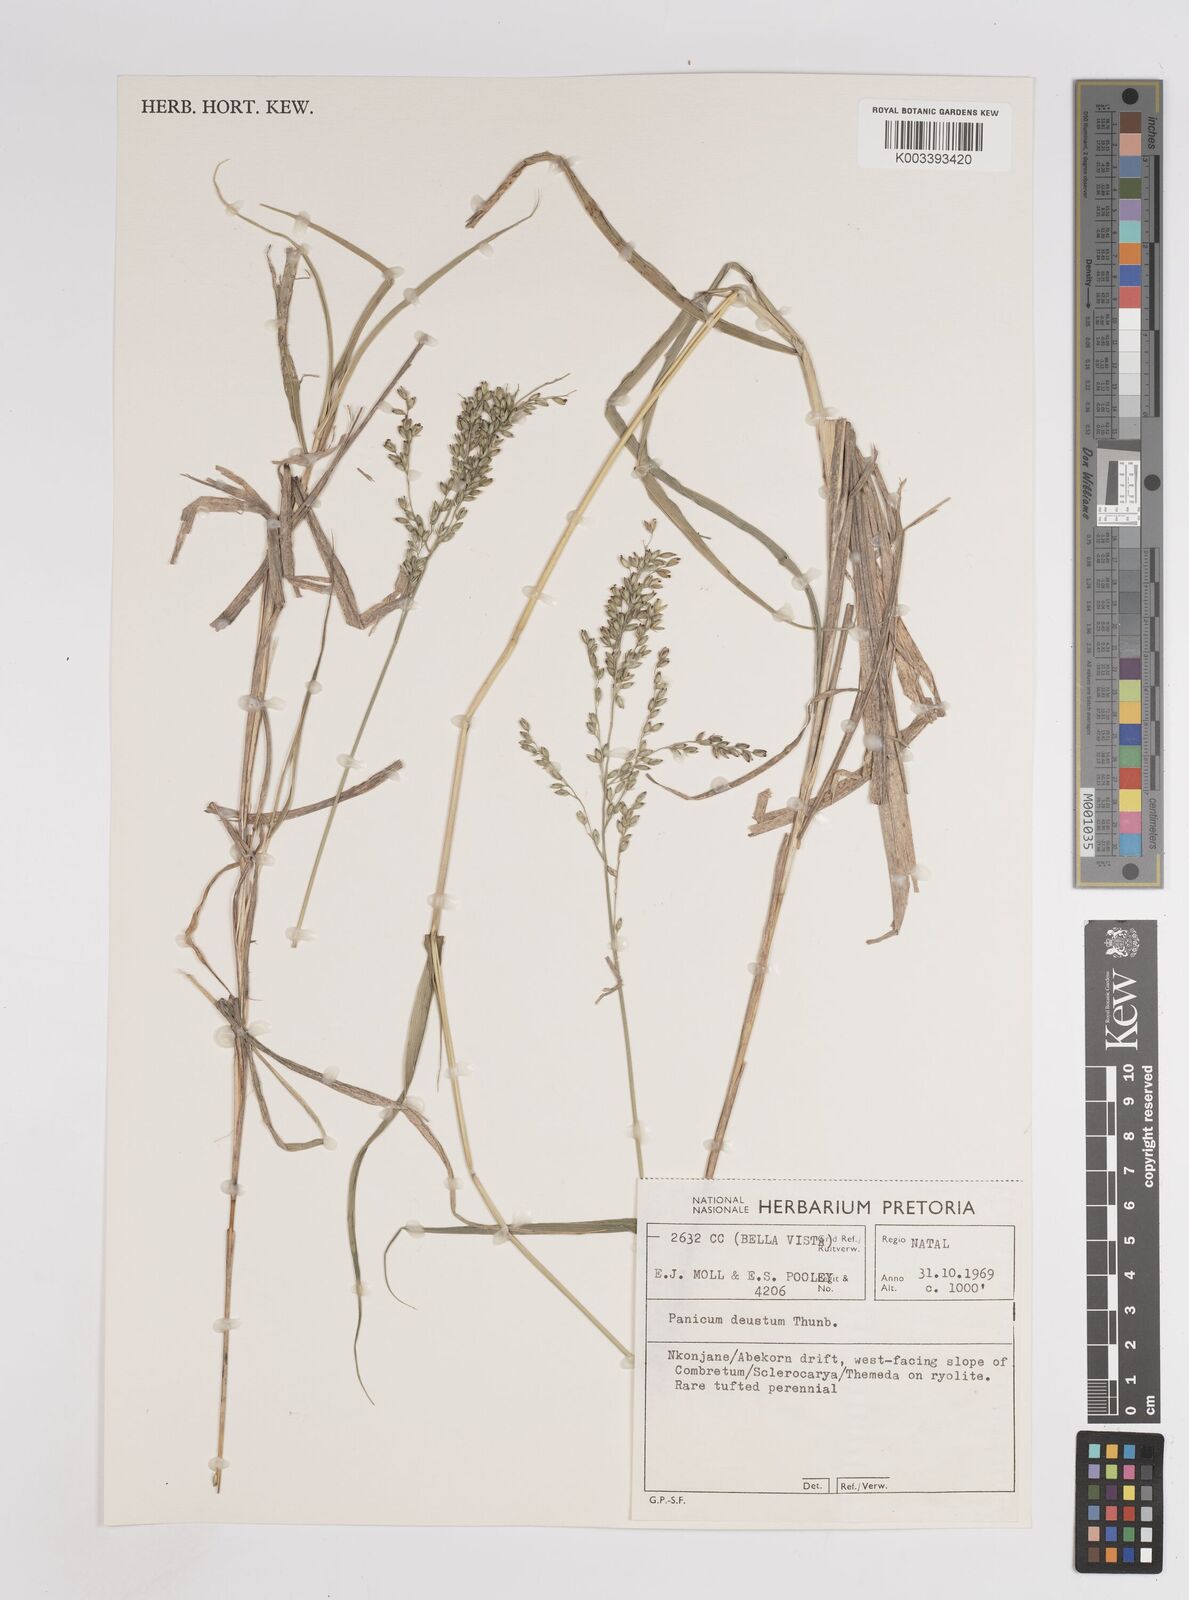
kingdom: Plantae
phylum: Tracheophyta
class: Liliopsida
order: Poales
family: Poaceae
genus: Panicum
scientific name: Panicum deustum
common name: Reed panicum
